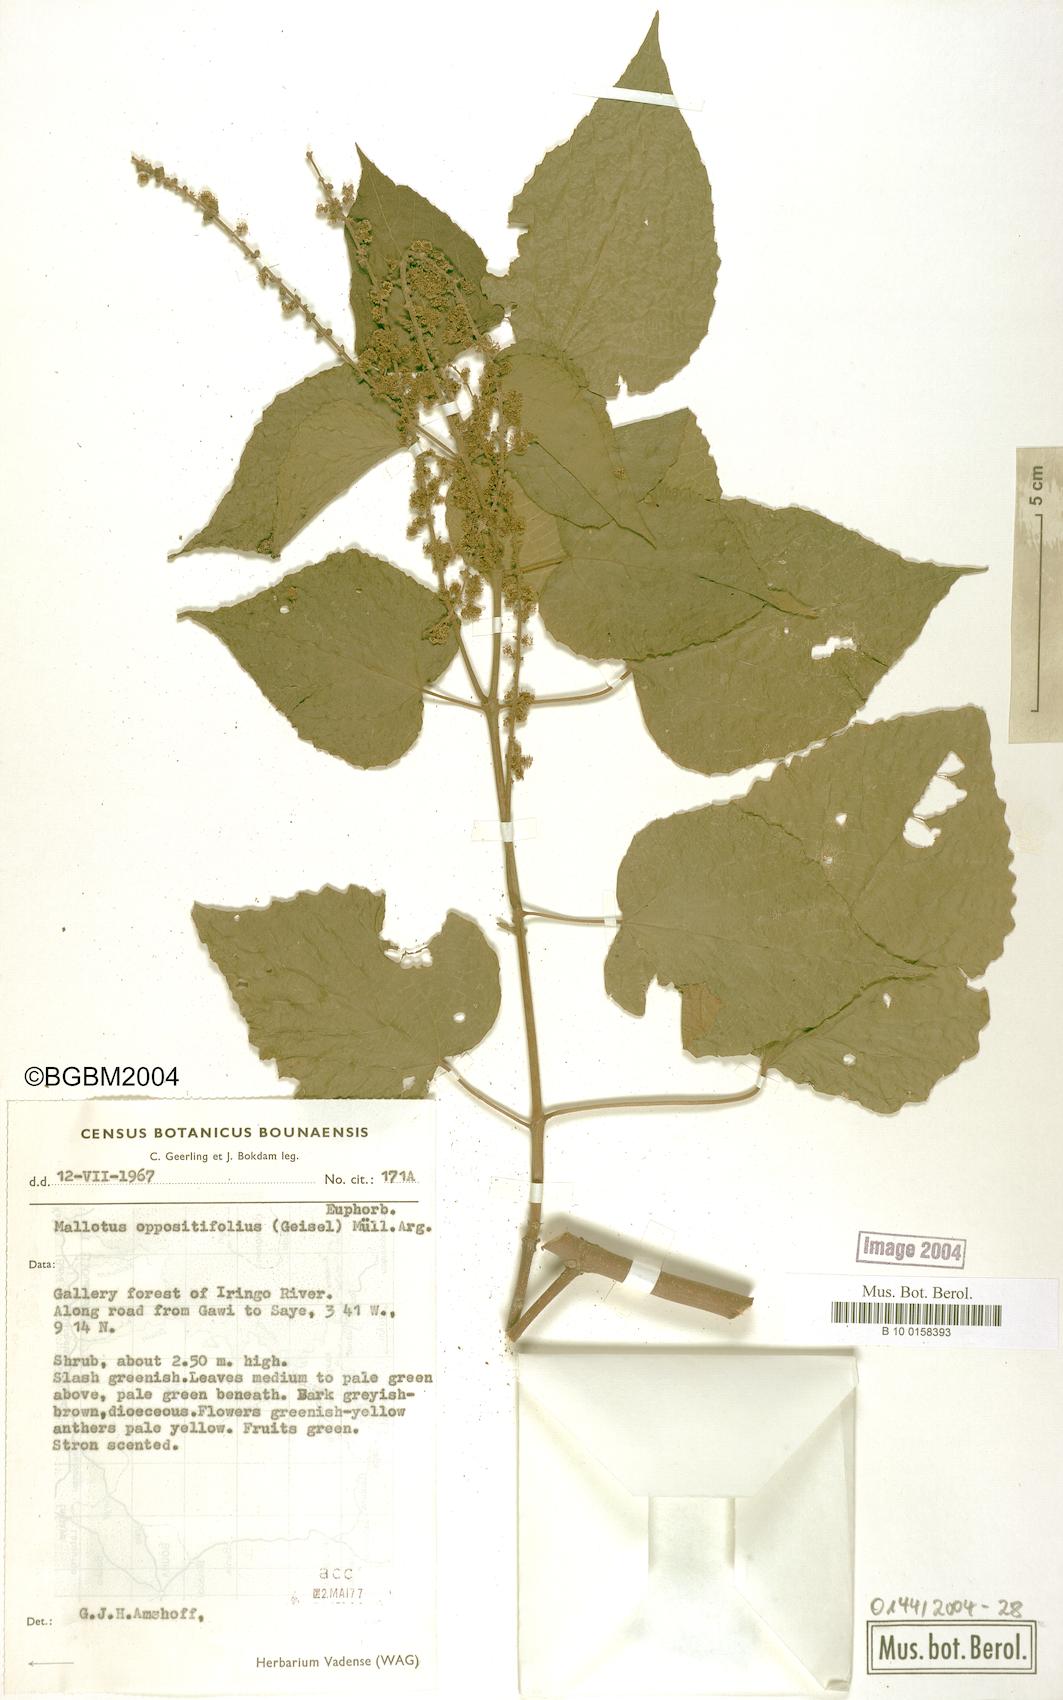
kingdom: Plantae
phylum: Tracheophyta
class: Magnoliopsida
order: Malpighiales
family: Euphorbiaceae
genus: Mallotus
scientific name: Mallotus oppositifolius
